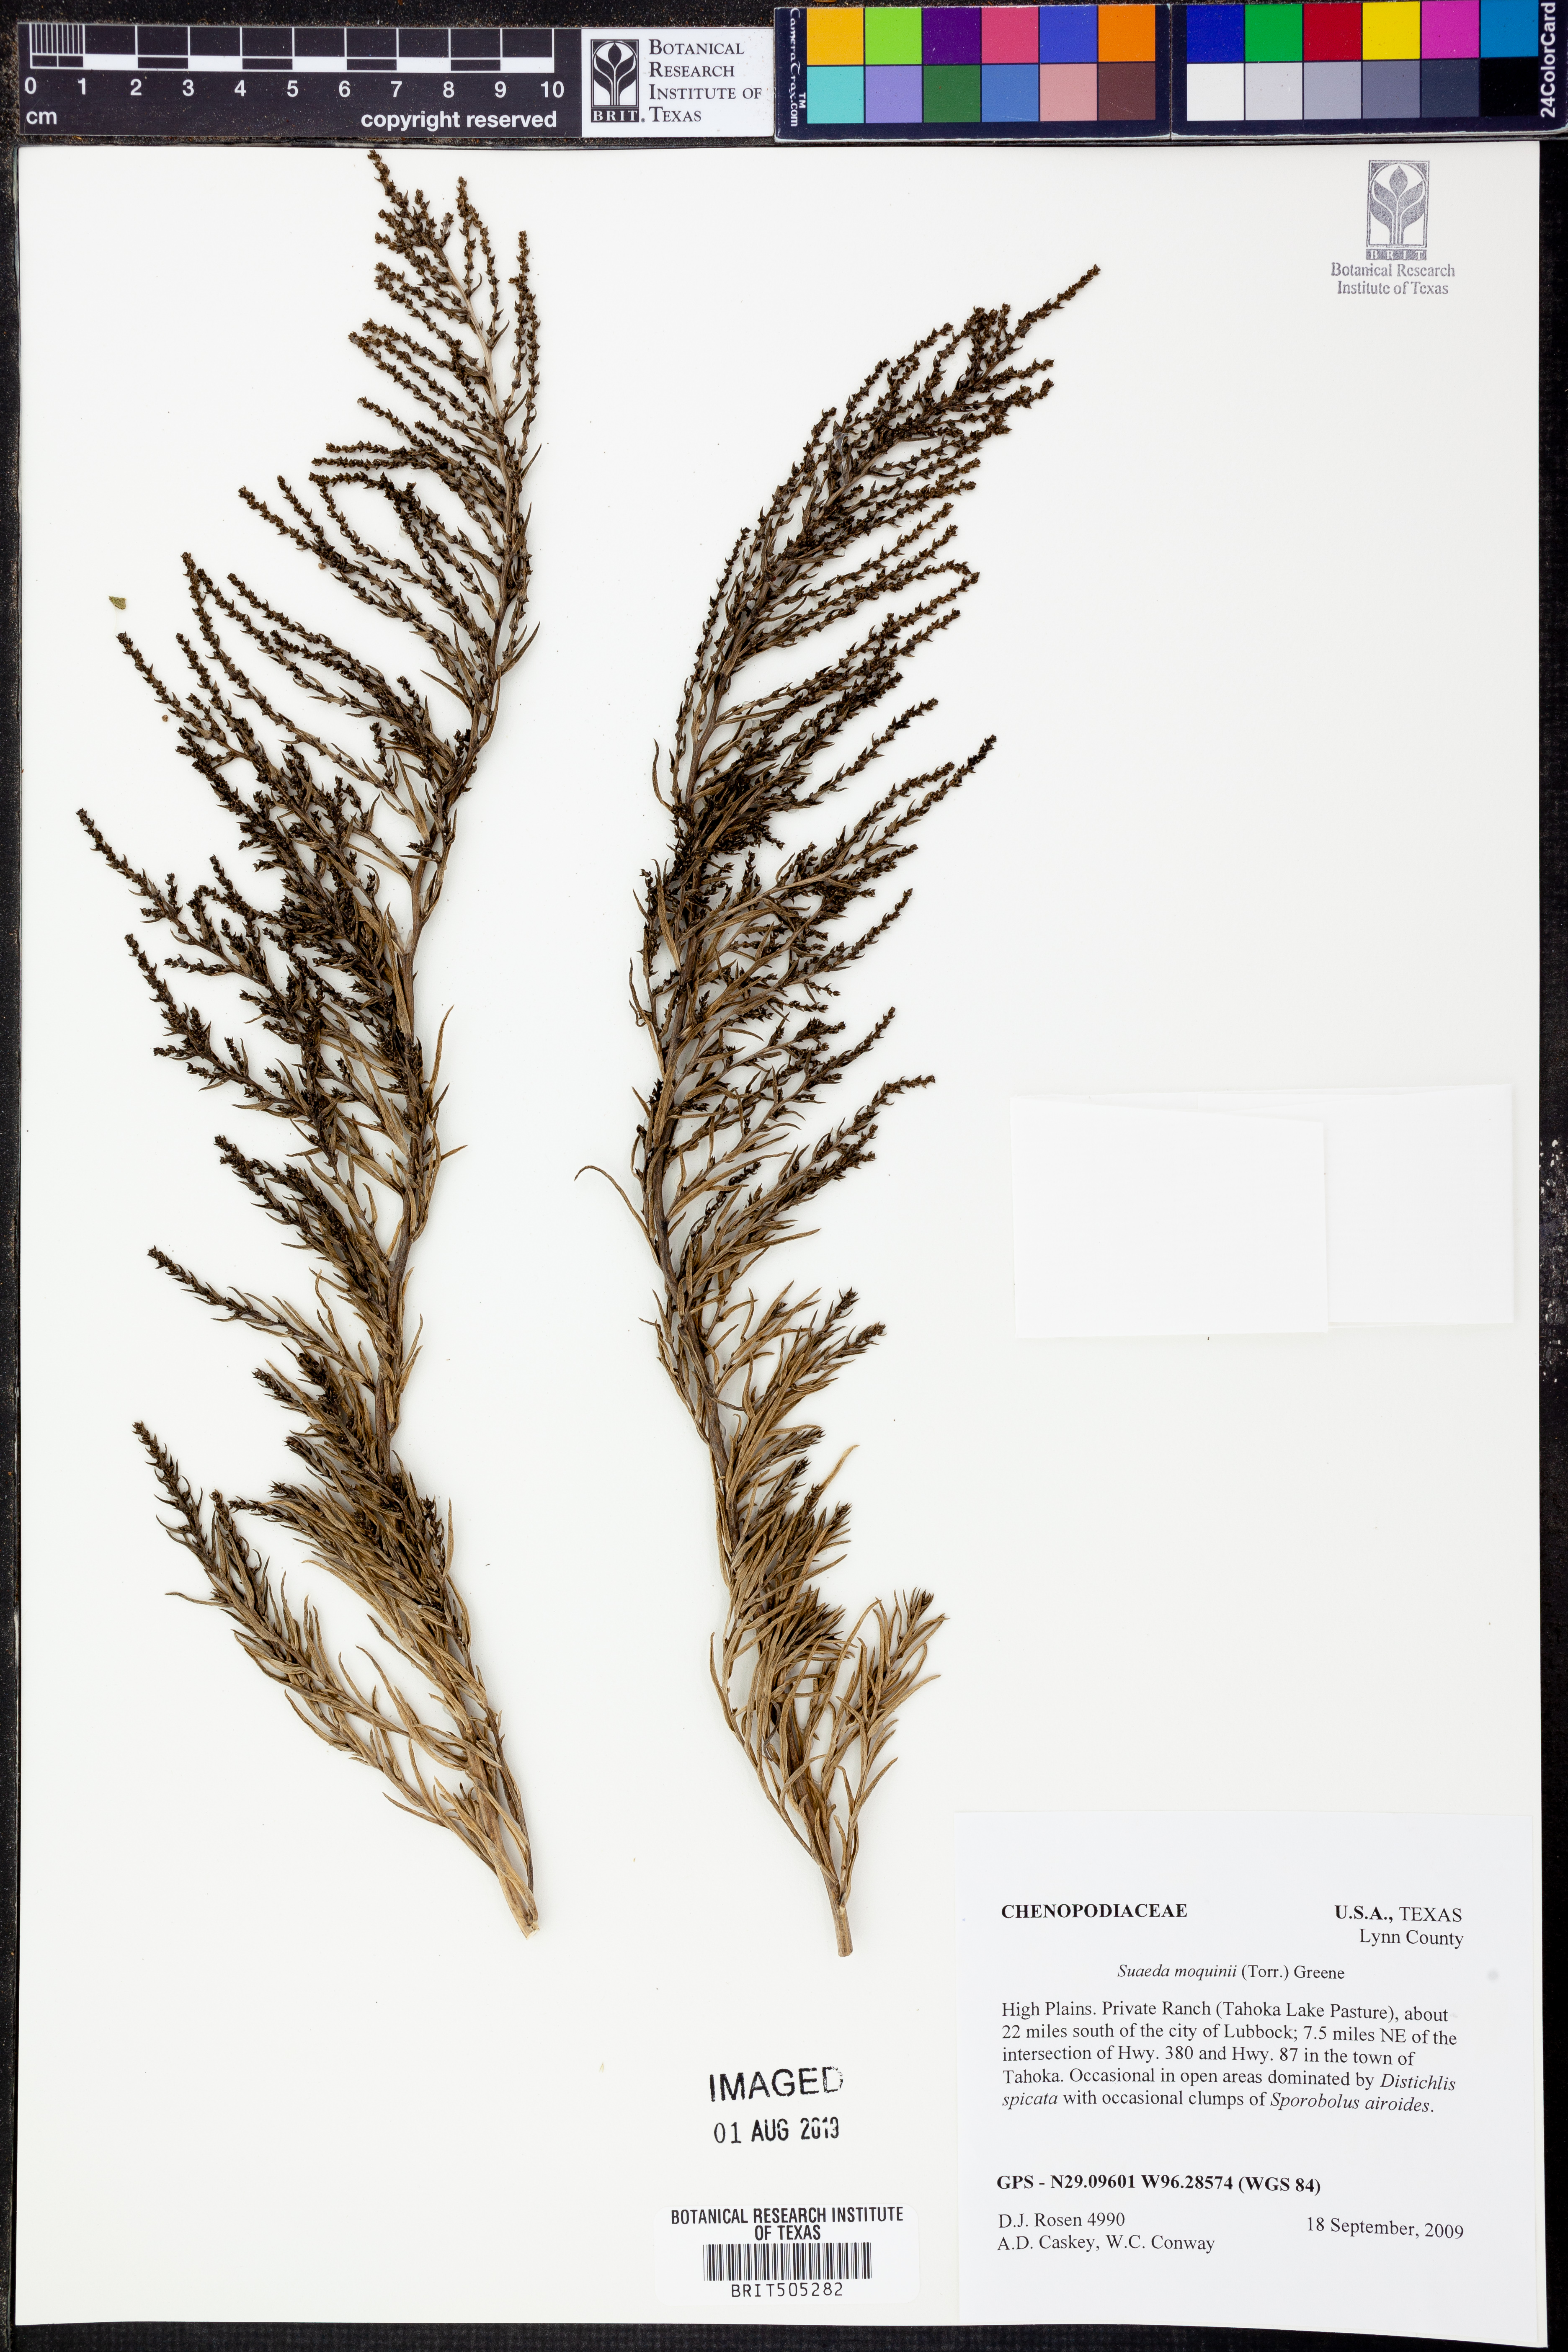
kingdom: Plantae
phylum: Tracheophyta
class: Magnoliopsida
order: Caryophyllales
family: Amaranthaceae
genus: Suaeda
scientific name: Suaeda nigra
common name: Bush seepweed
